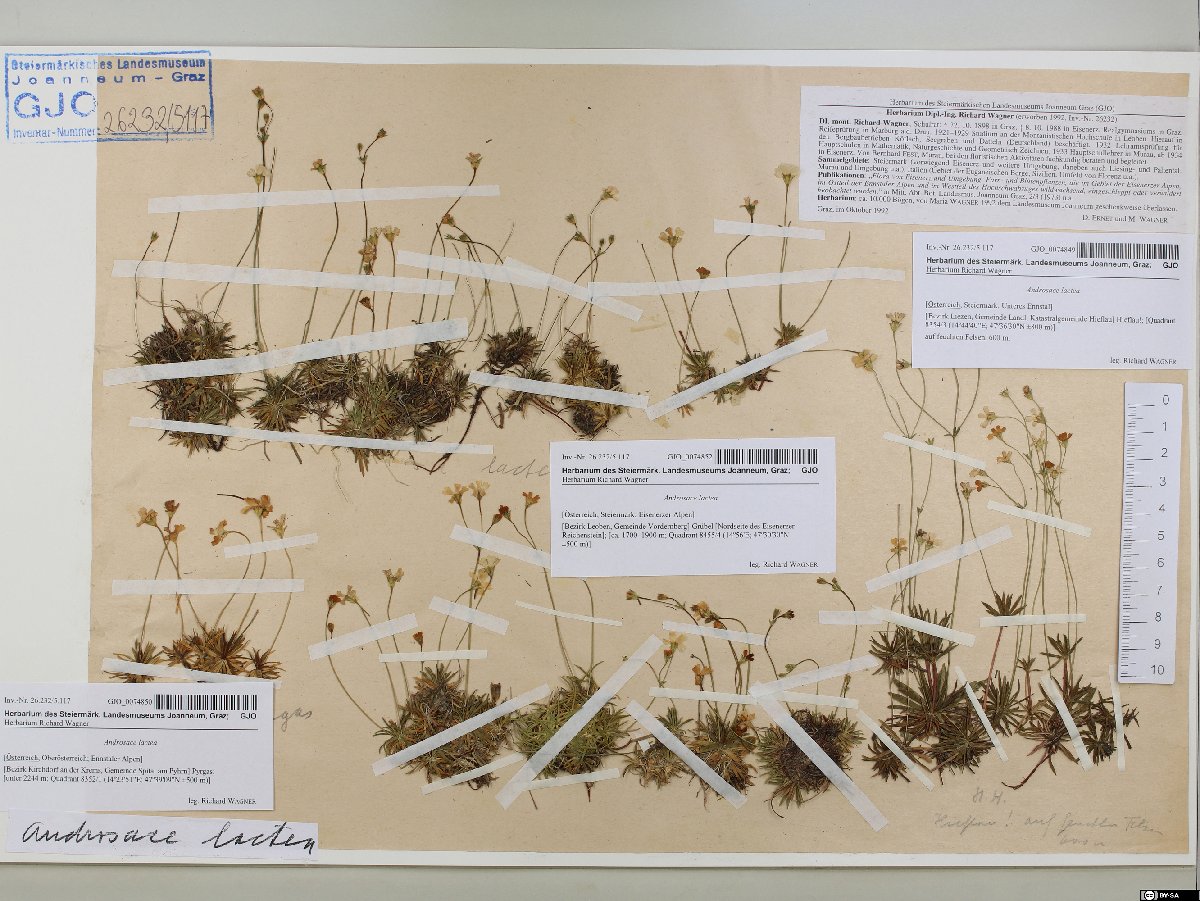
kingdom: Plantae
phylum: Tracheophyta
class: Magnoliopsida
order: Ericales
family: Primulaceae
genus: Androsace
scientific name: Androsace lactea
